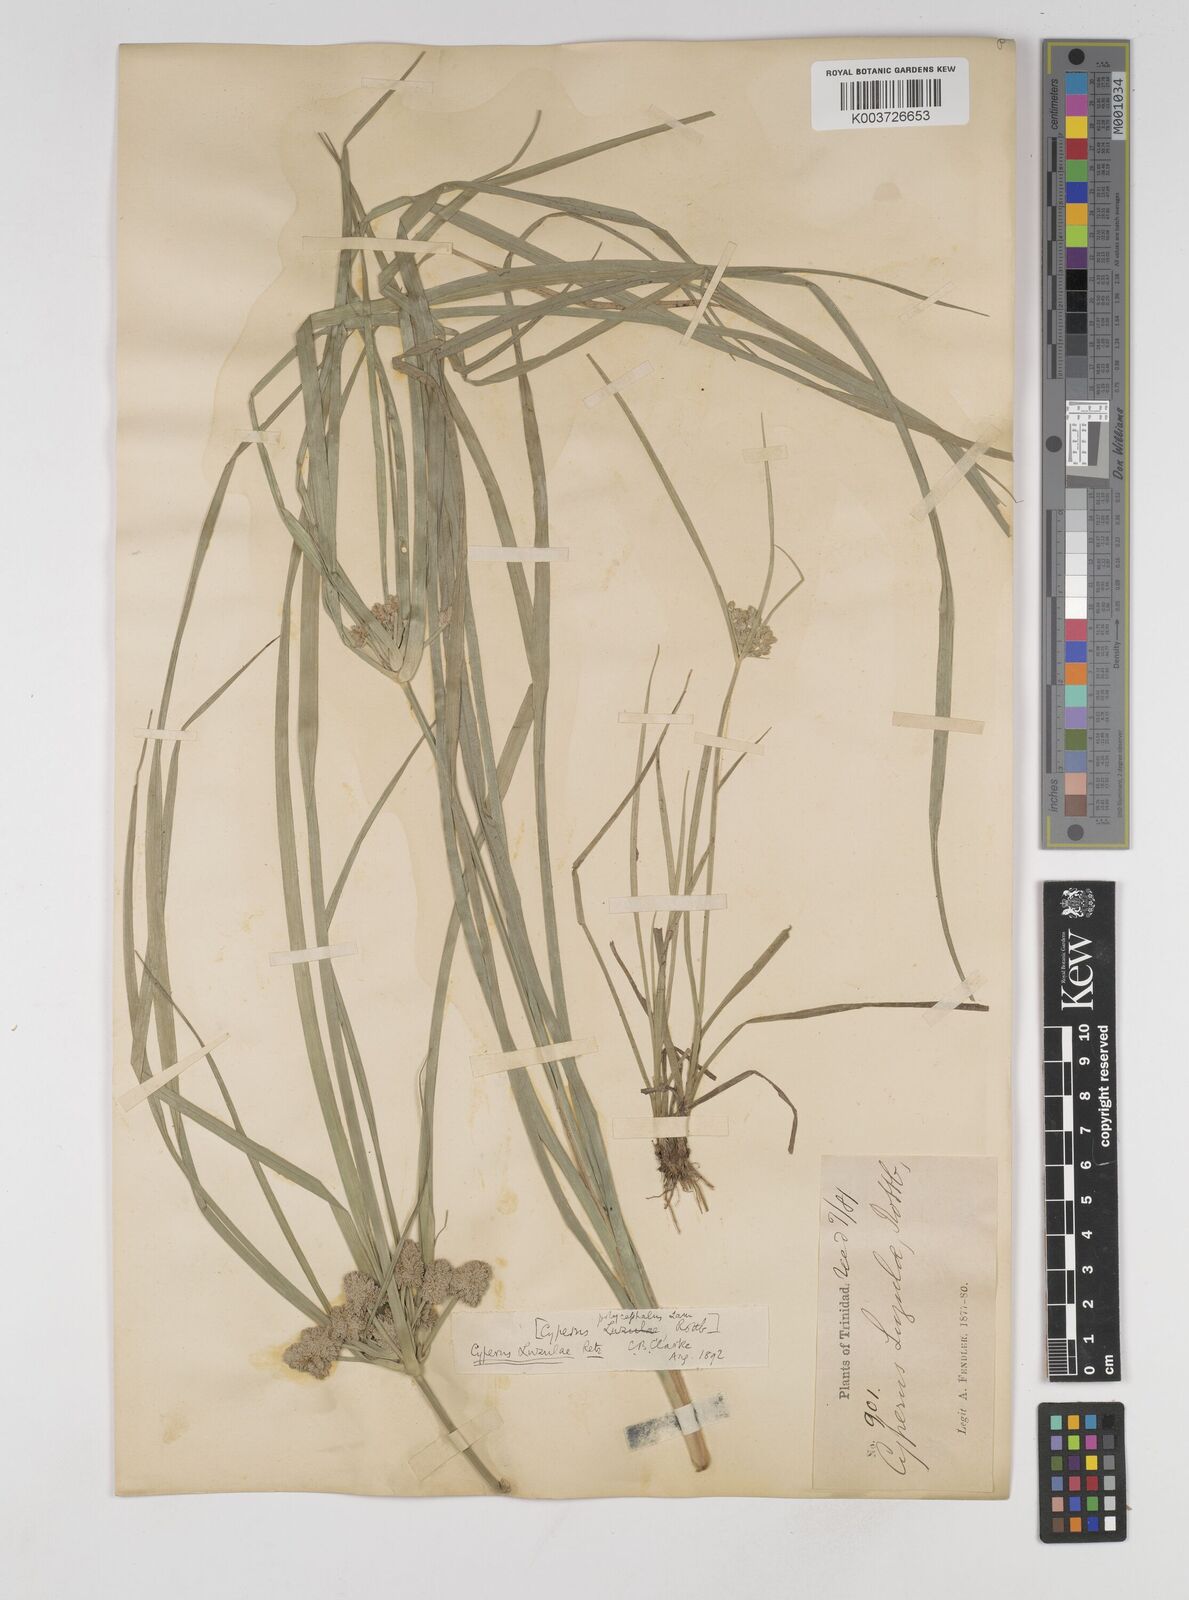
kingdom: Plantae
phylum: Tracheophyta
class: Liliopsida
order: Poales
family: Cyperaceae
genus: Cyperus
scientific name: Cyperus luzulae
